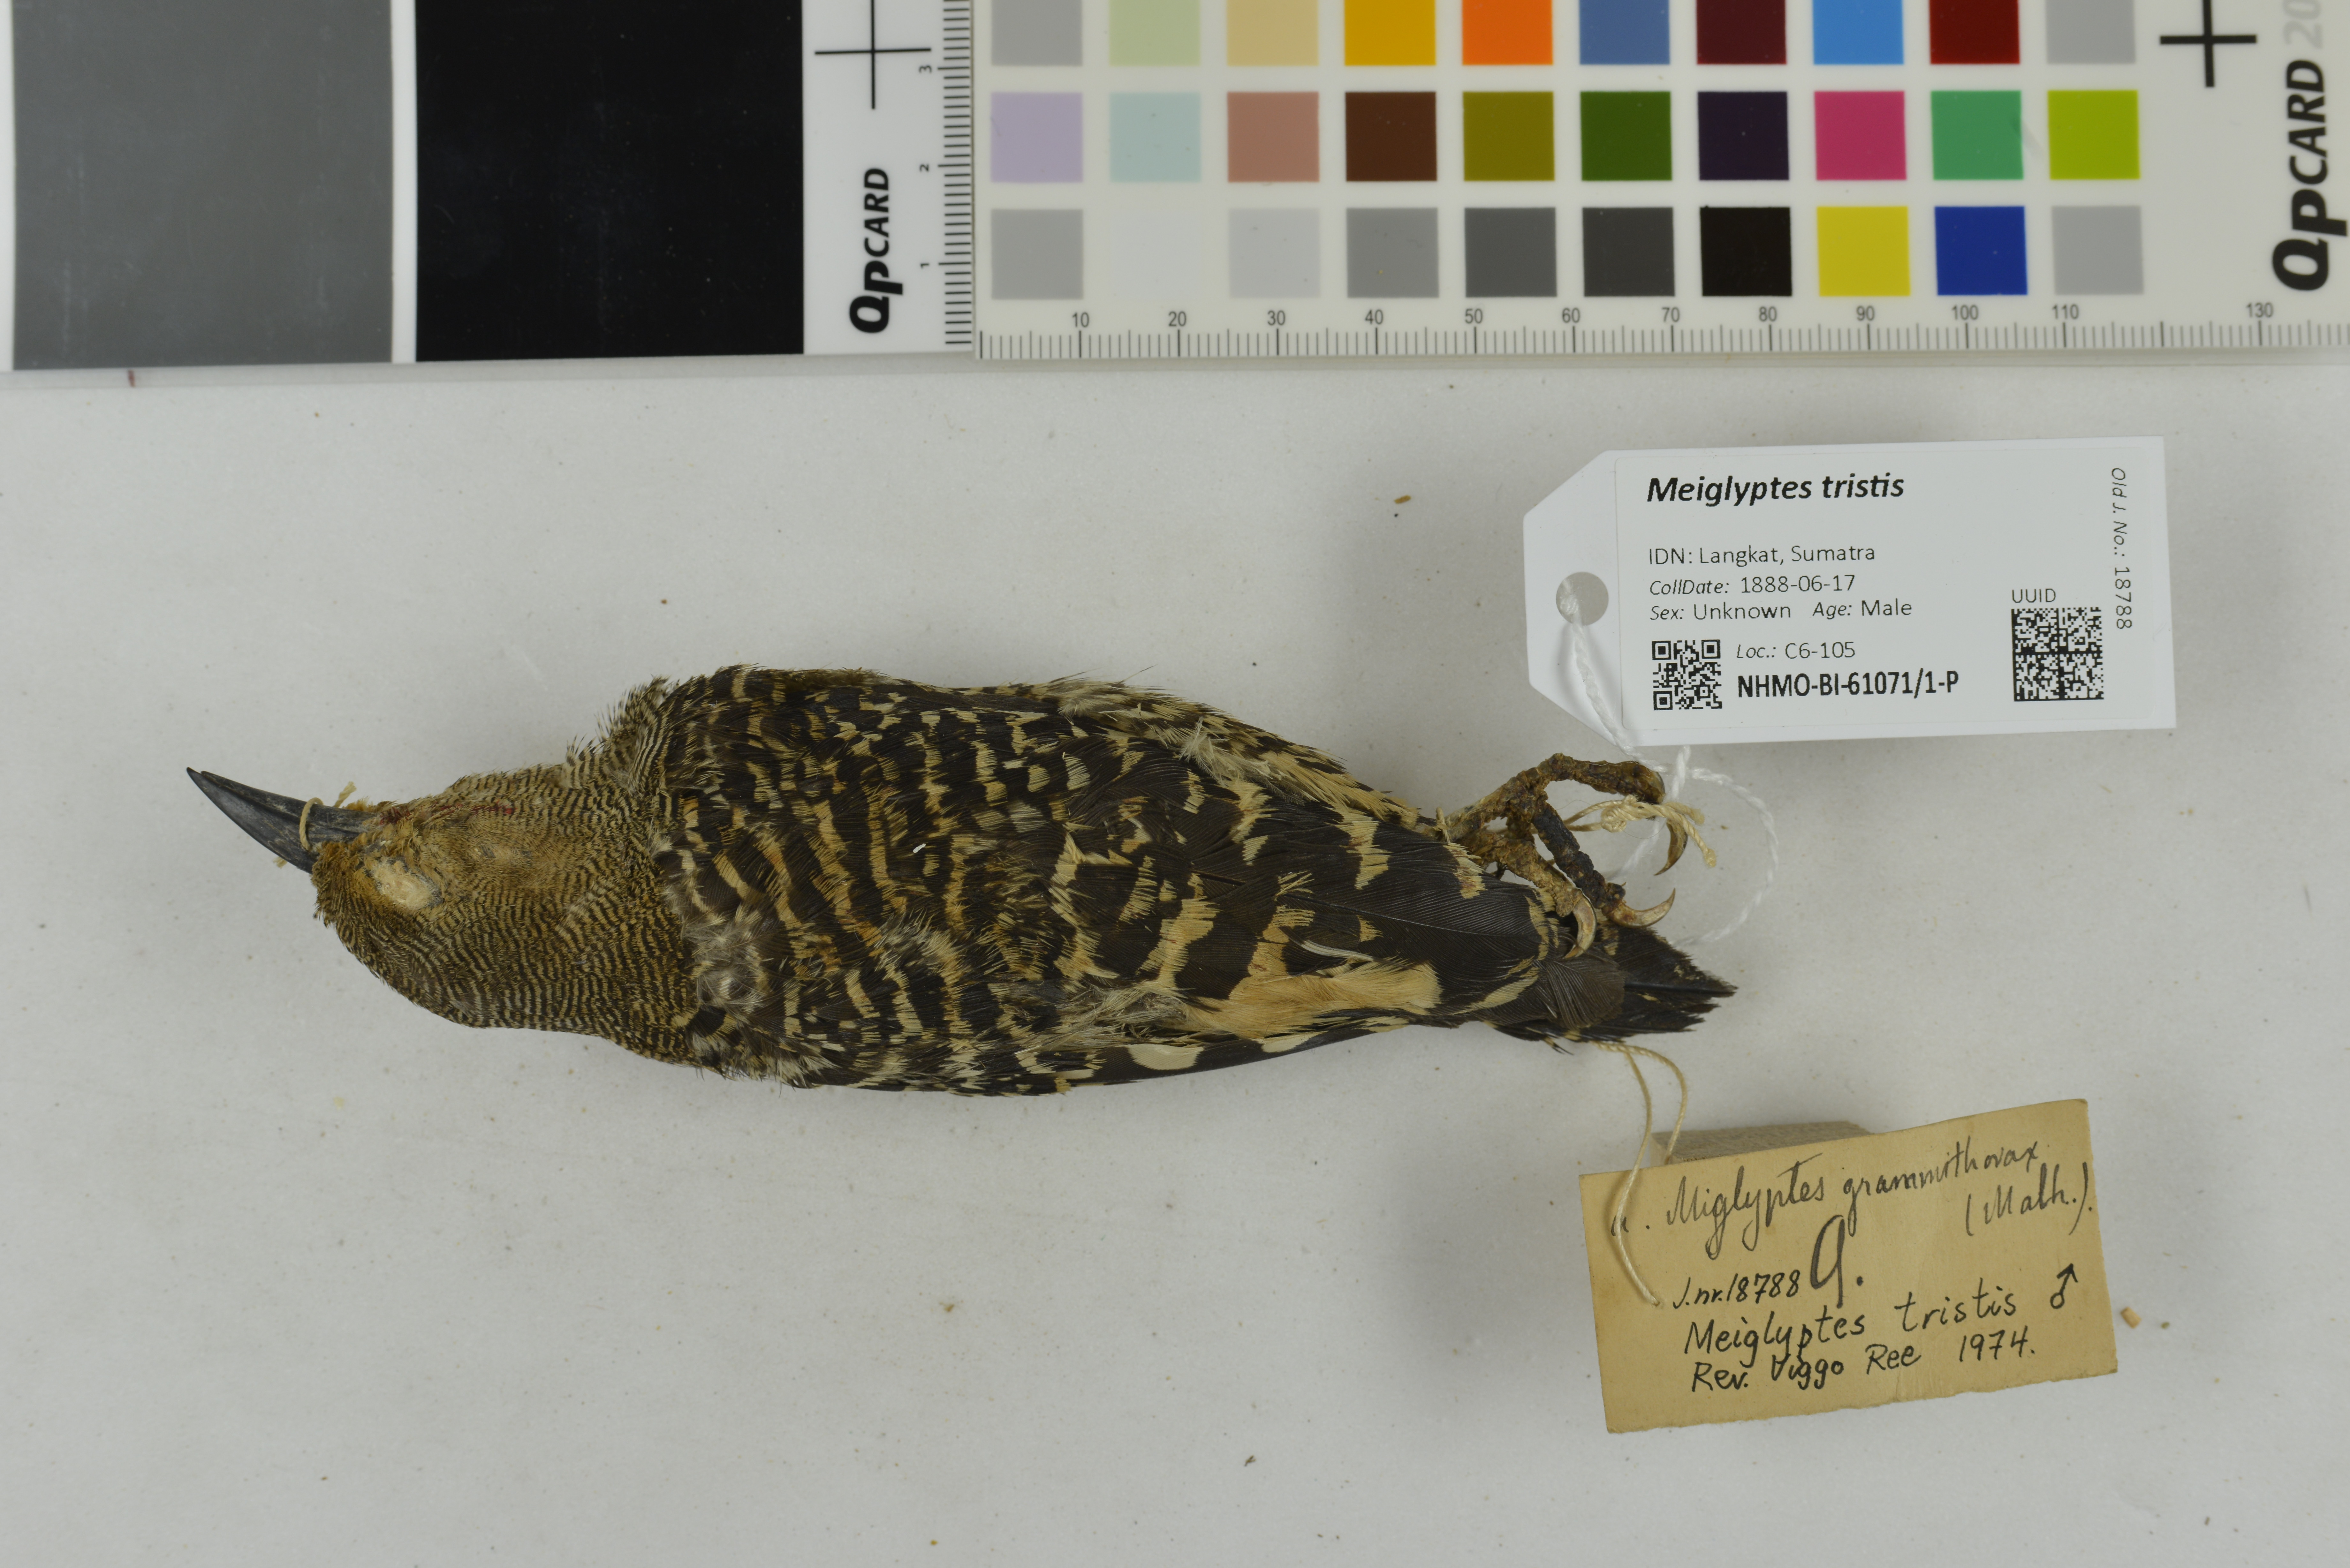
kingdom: Animalia
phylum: Chordata
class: Aves
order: Piciformes
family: Picidae
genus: Meiglyptes
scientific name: Meiglyptes tristis
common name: Buff-rumped woodpecker
